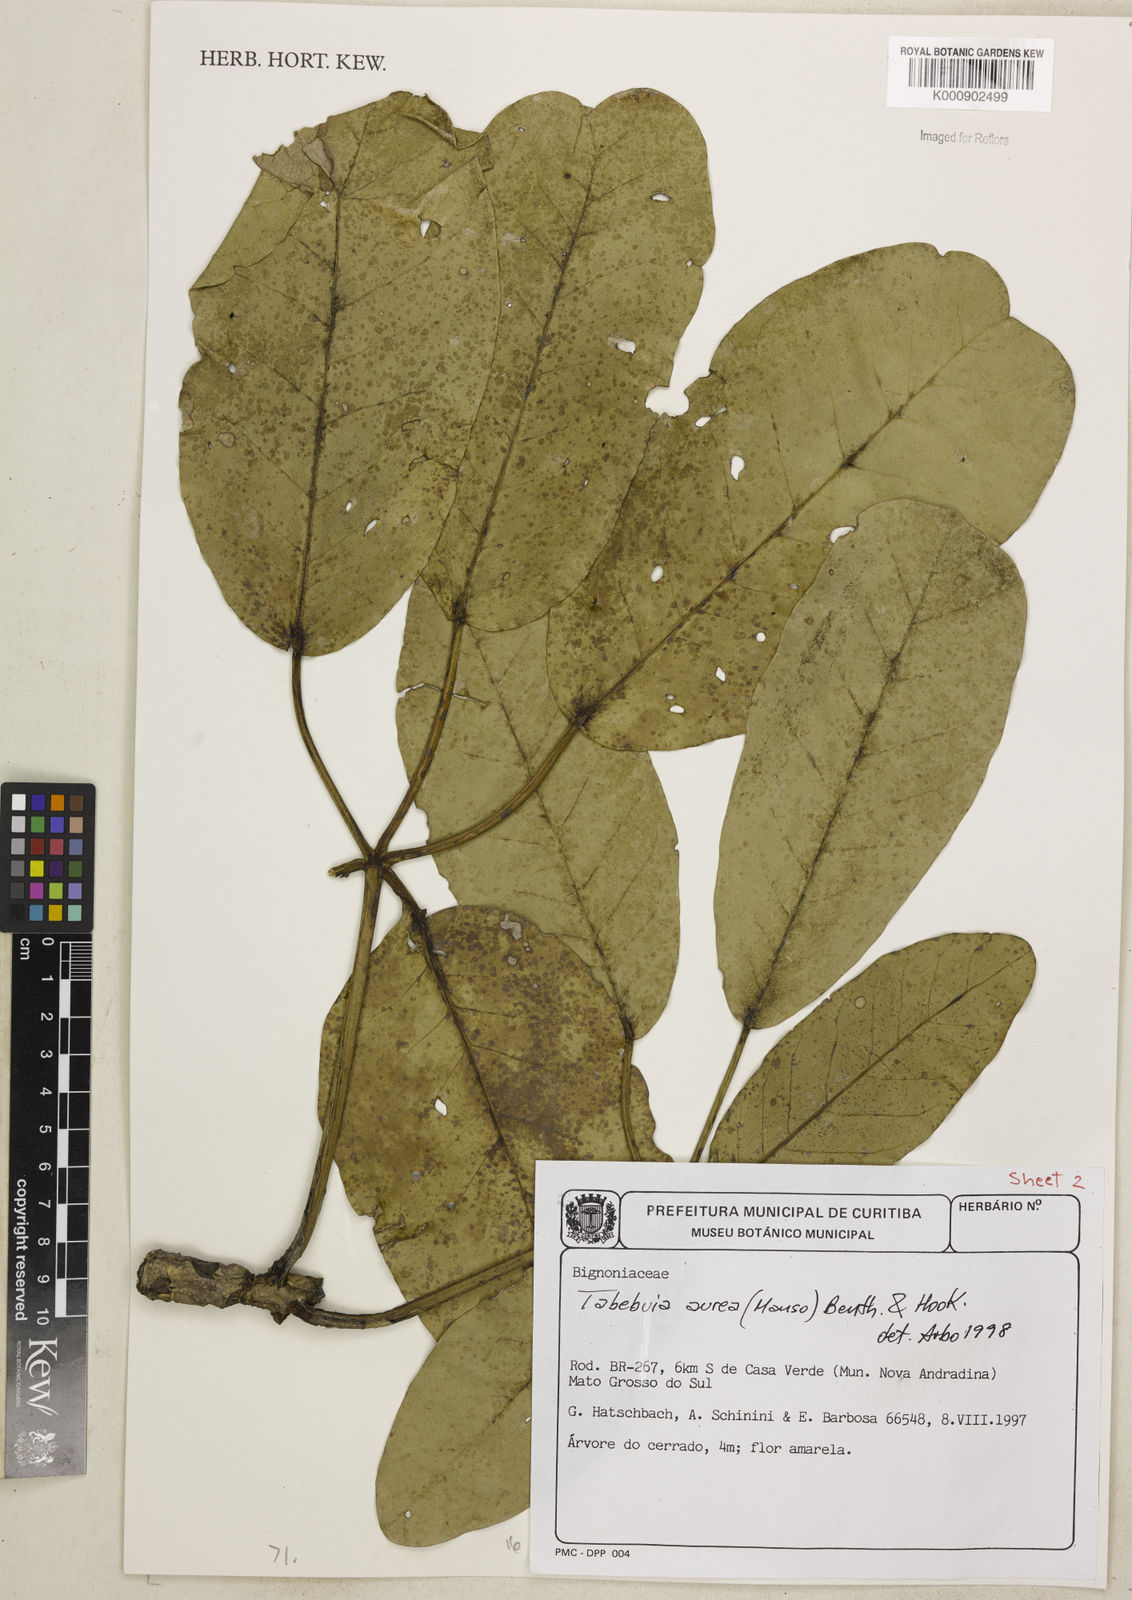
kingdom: Plantae
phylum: Tracheophyta
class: Magnoliopsida
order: Lamiales
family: Bignoniaceae
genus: Tabebuia
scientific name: Tabebuia aurea
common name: Caribbean trumpet-tree
